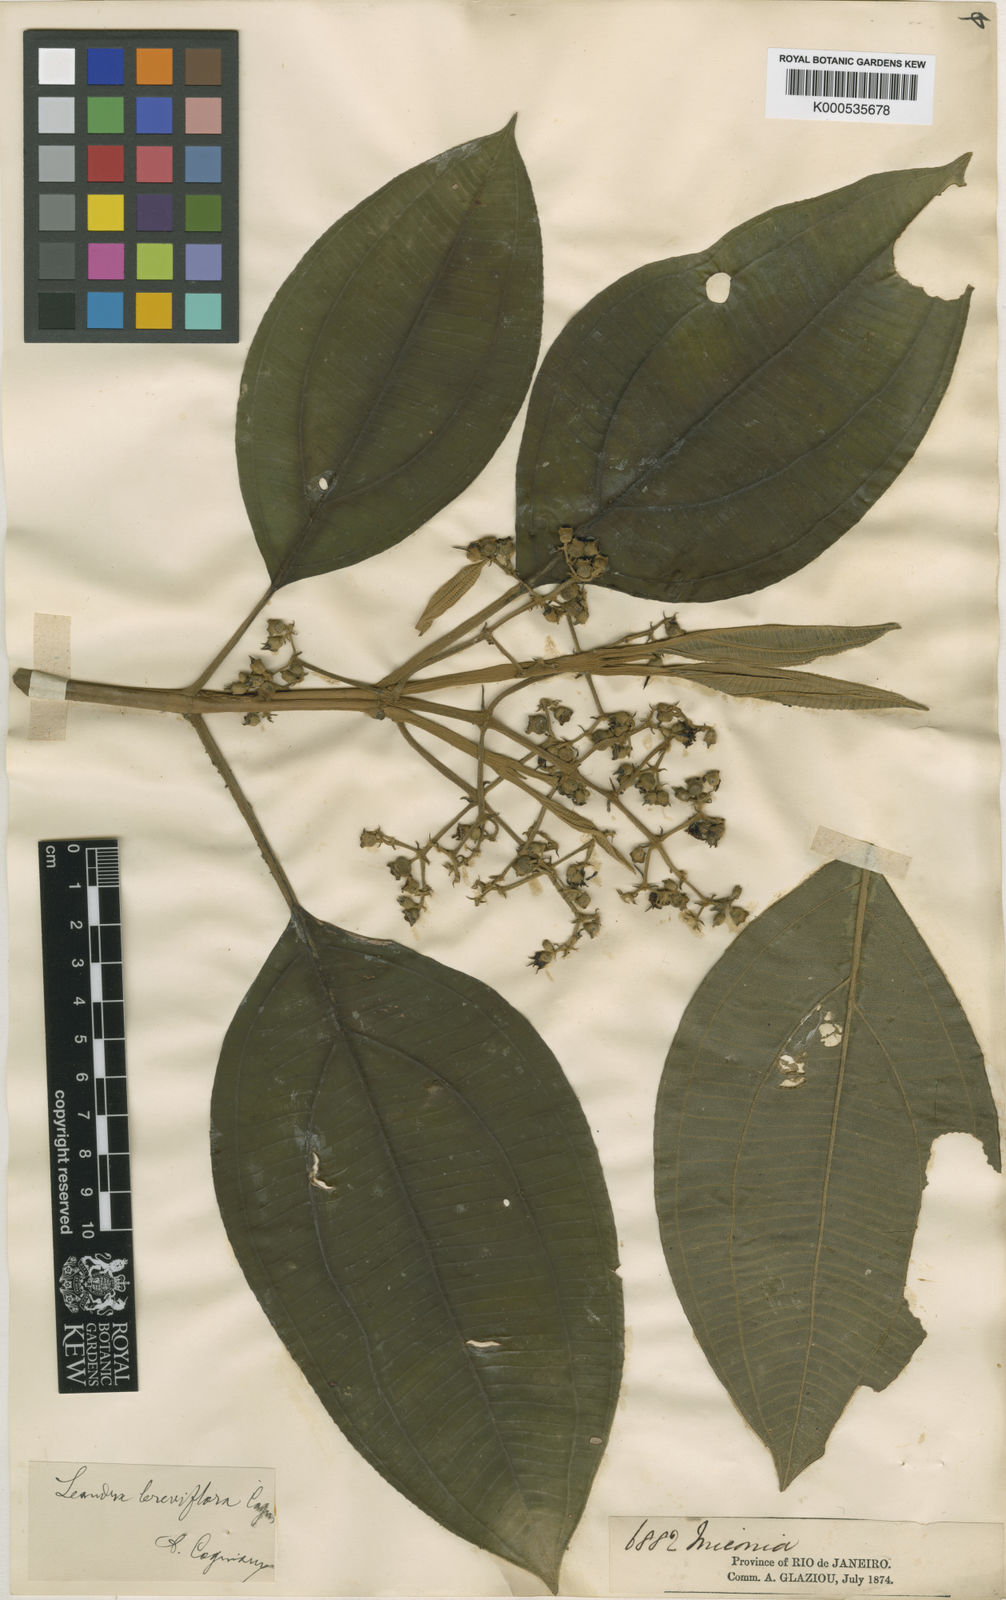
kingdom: Plantae
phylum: Tracheophyta
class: Magnoliopsida
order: Myrtales
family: Melastomataceae
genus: Miconia
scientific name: Miconia breviflora
